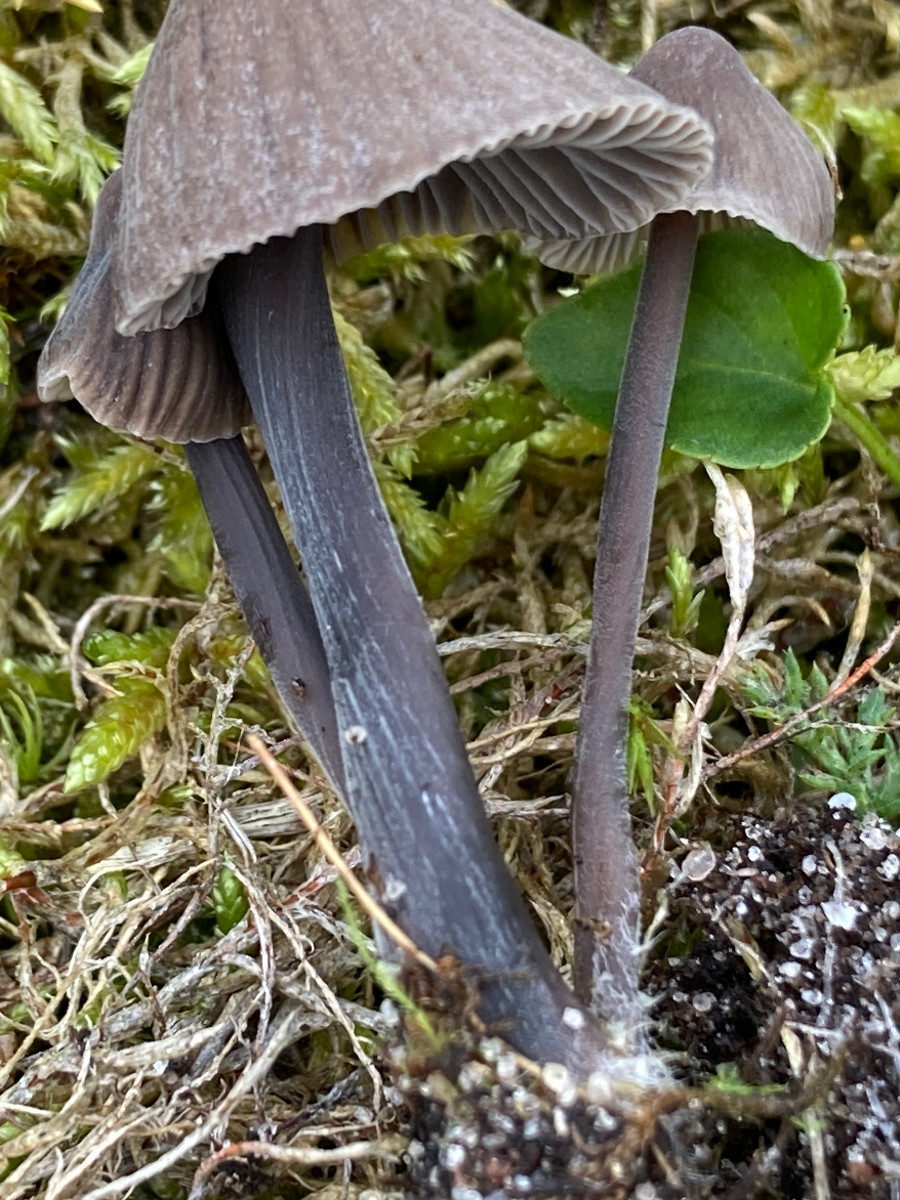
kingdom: Fungi
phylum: Basidiomycota
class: Agaricomycetes
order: Agaricales
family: Mycenaceae
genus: Mycena
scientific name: Mycena
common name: huesvamp
